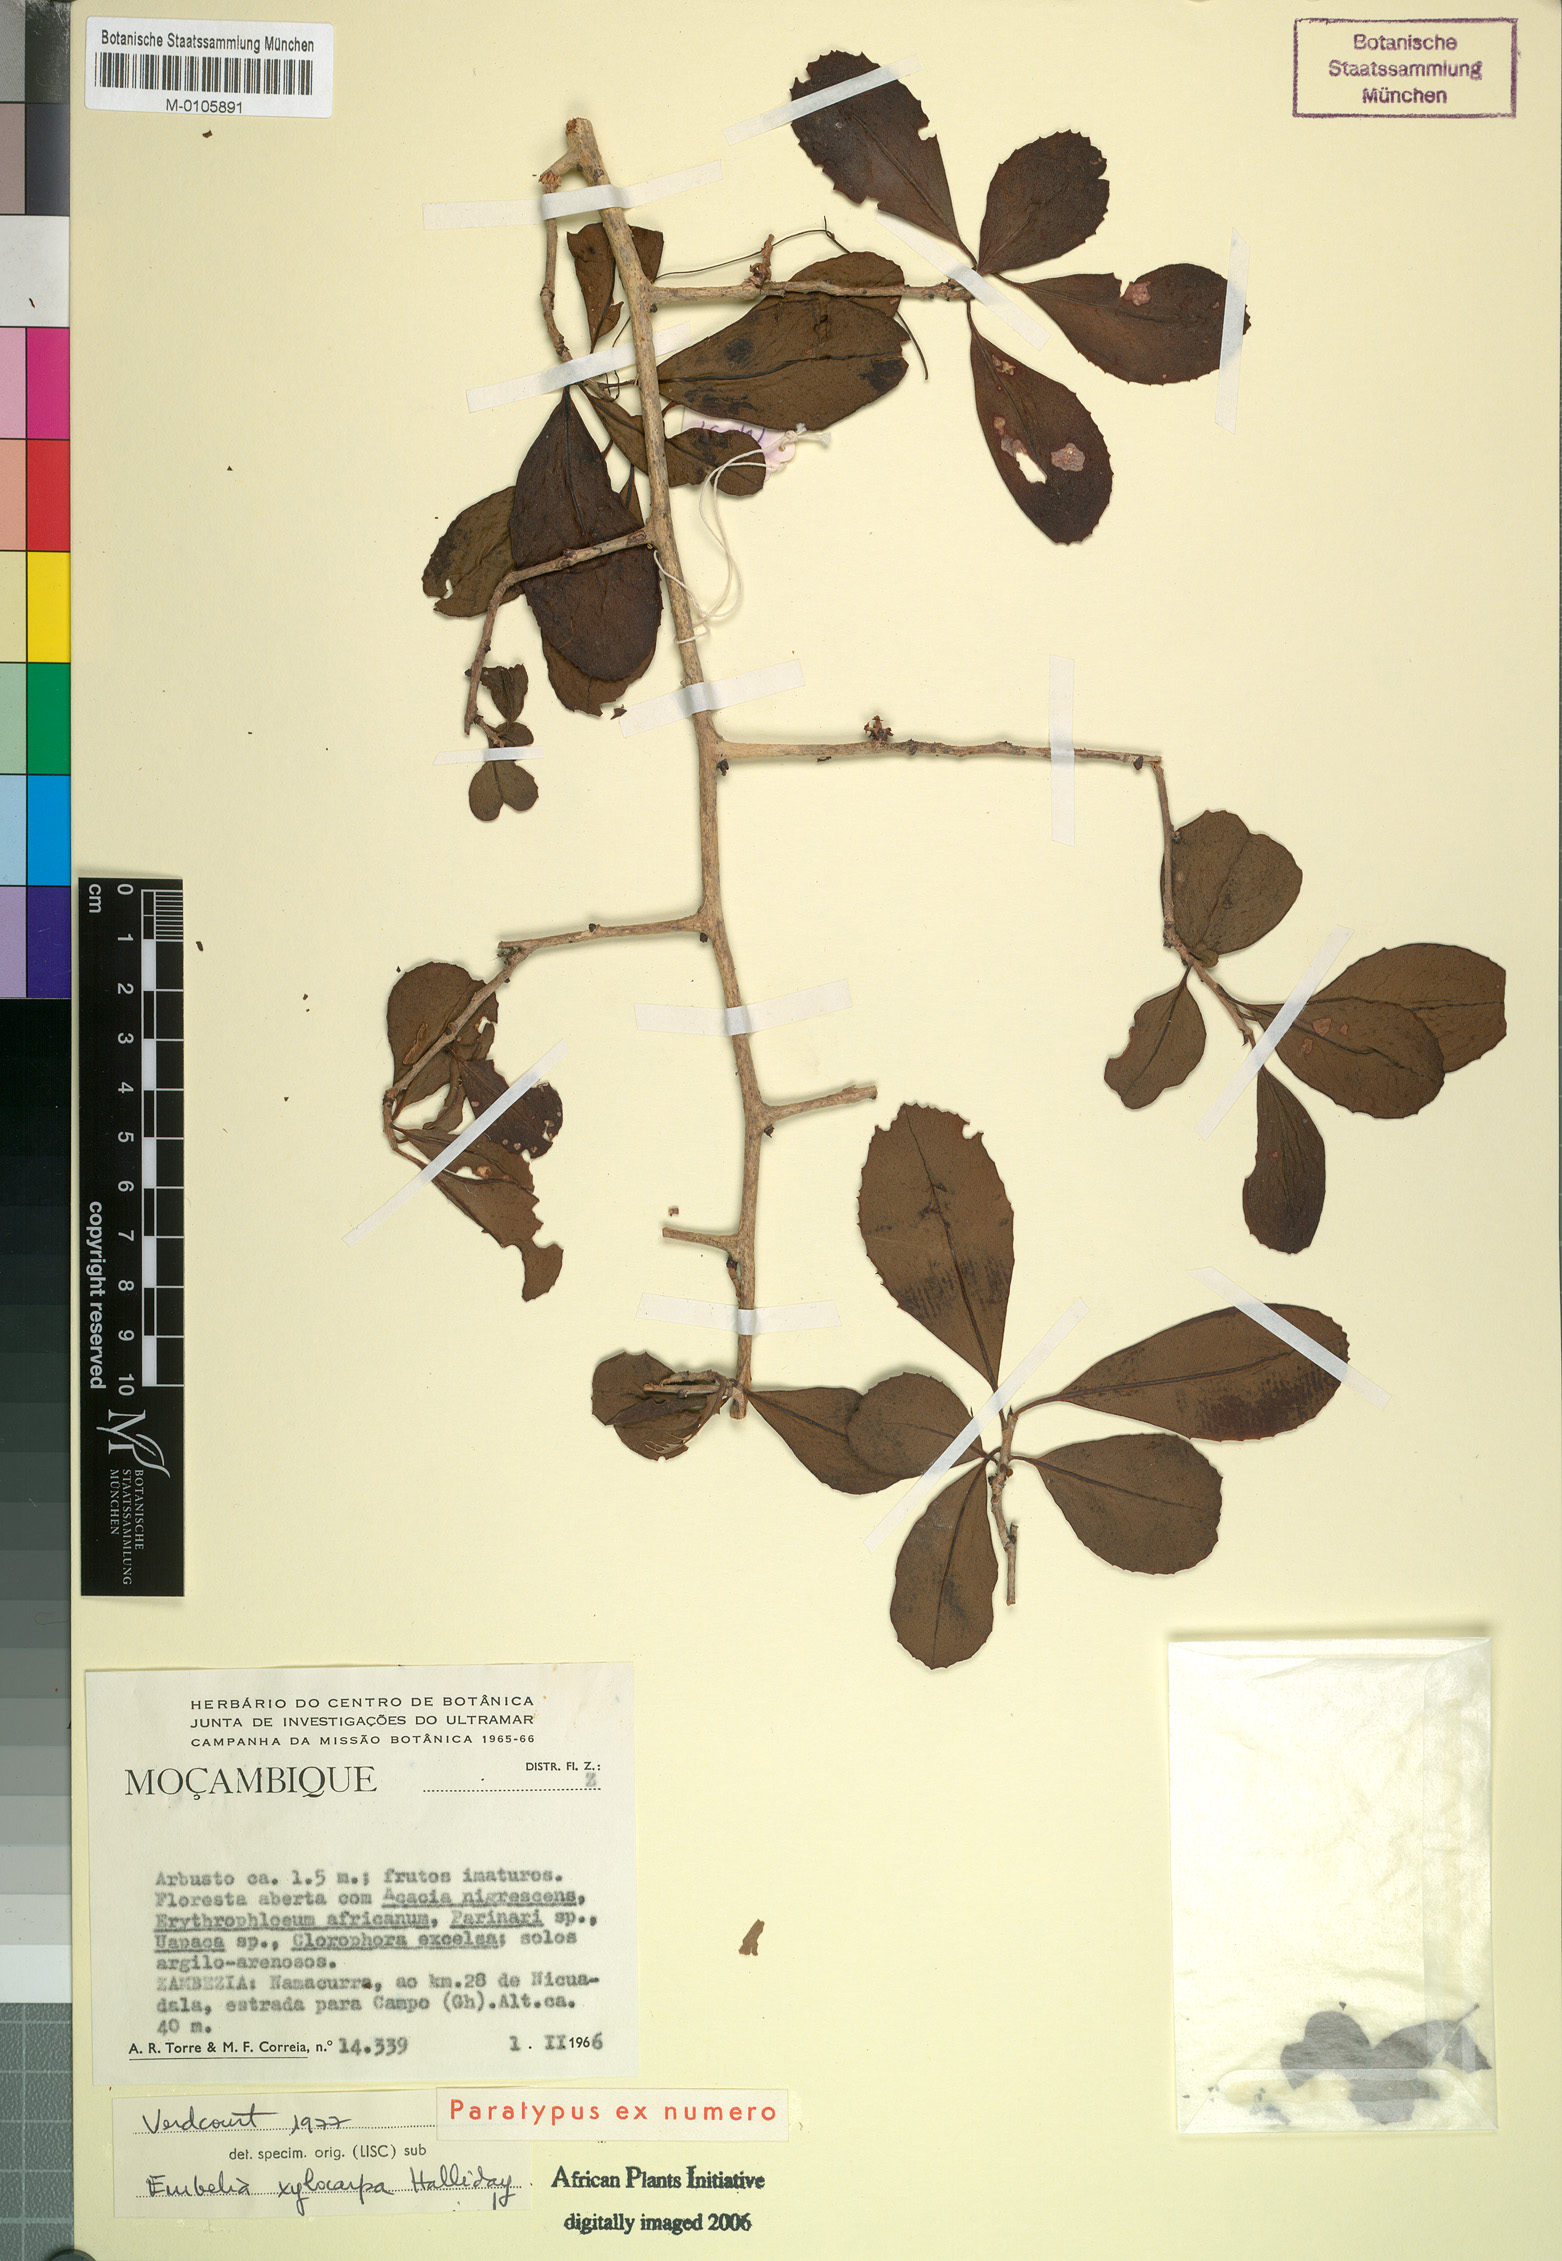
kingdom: Plantae
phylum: Tracheophyta
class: Magnoliopsida
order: Ericales
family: Primulaceae
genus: Embelia
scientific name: Embelia xylocarpa
